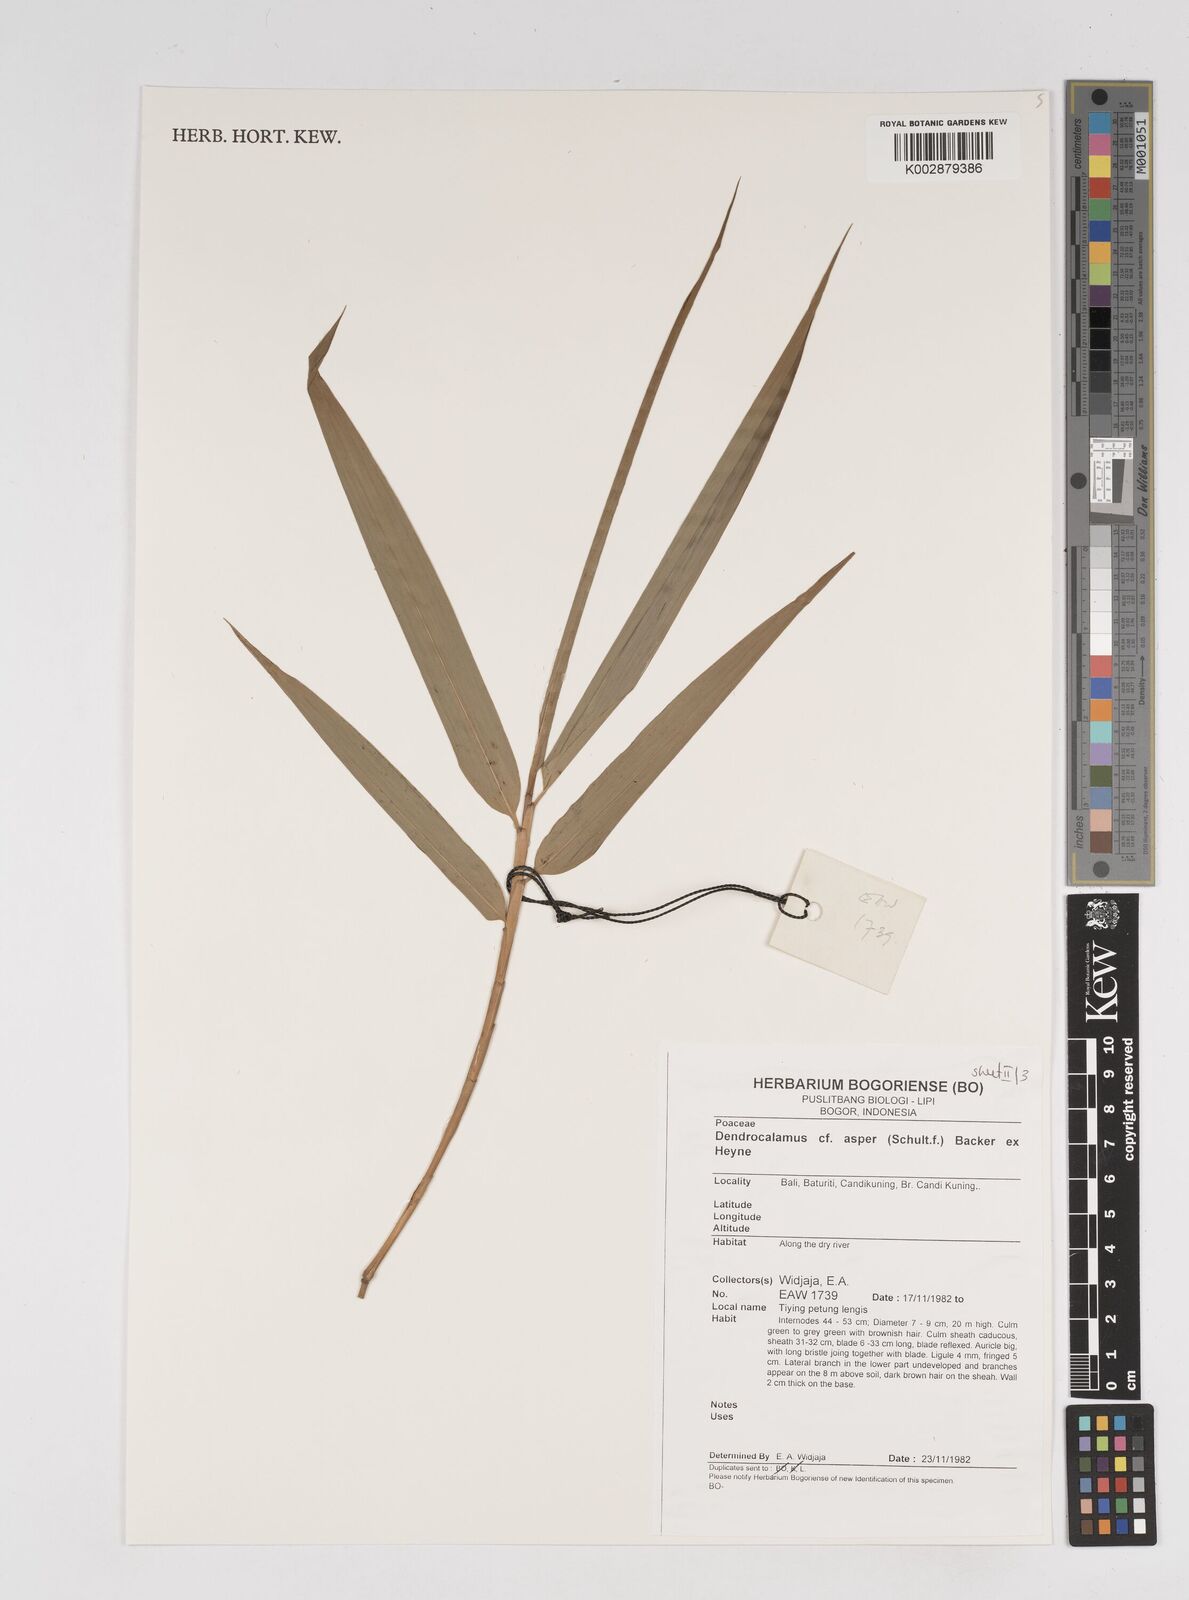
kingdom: Plantae
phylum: Tracheophyta
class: Liliopsida
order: Poales
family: Poaceae
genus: Dendrocalamus
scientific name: Dendrocalamus asper
